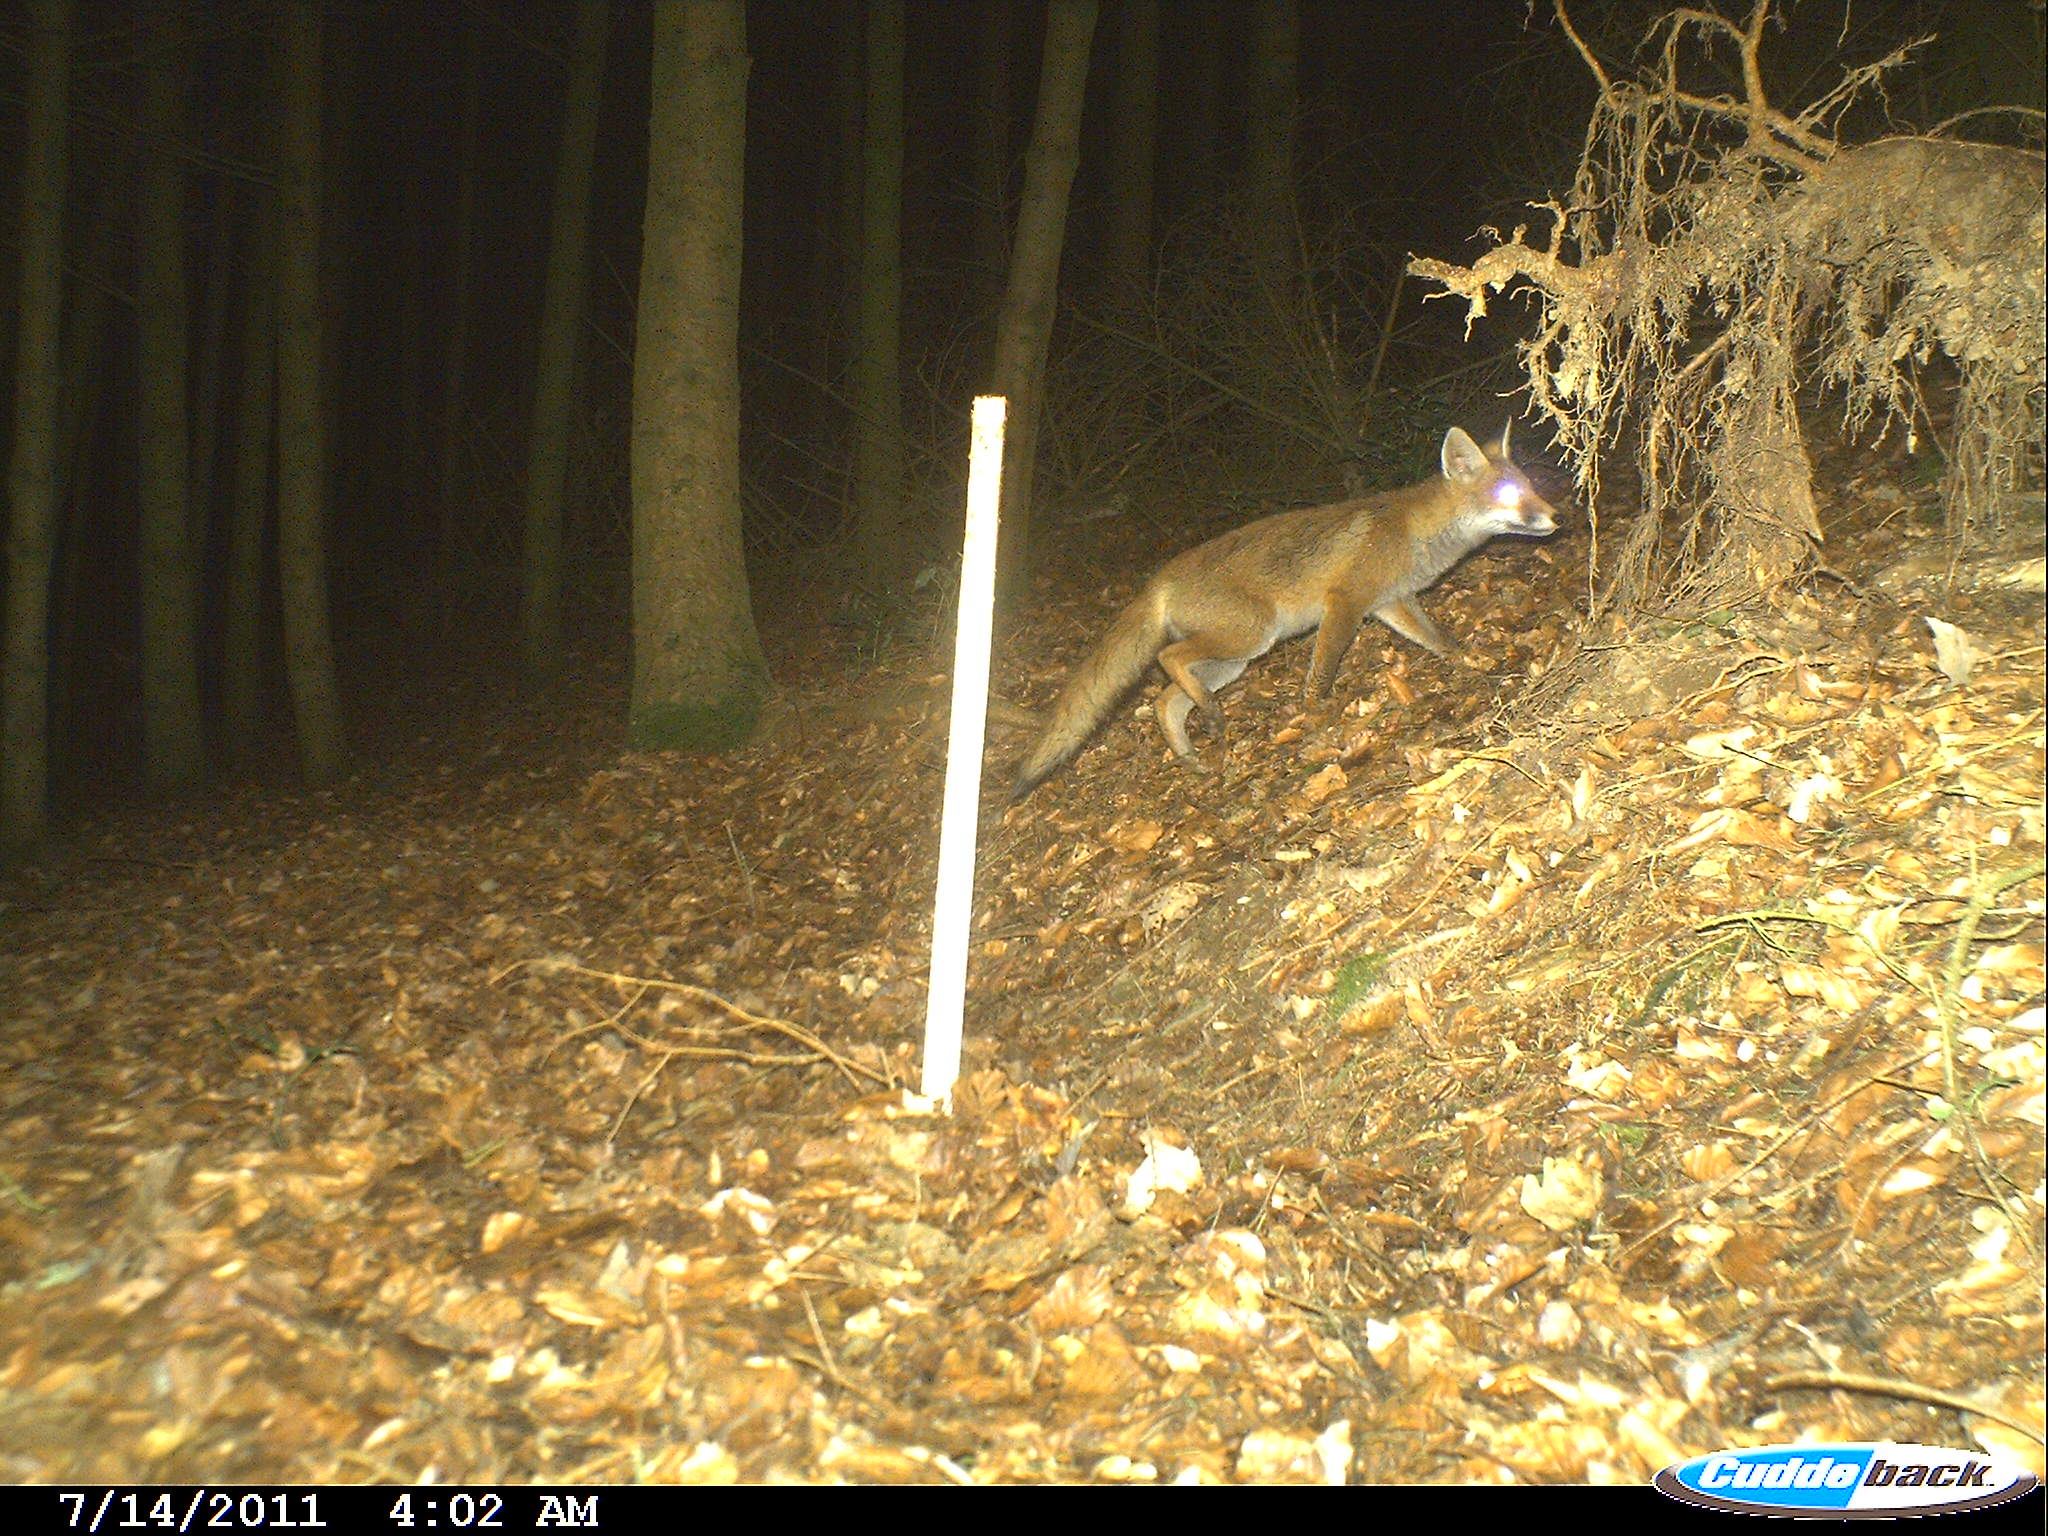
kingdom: Animalia
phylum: Chordata
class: Mammalia
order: Carnivora
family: Canidae
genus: Vulpes
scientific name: Vulpes vulpes
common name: Red fox
